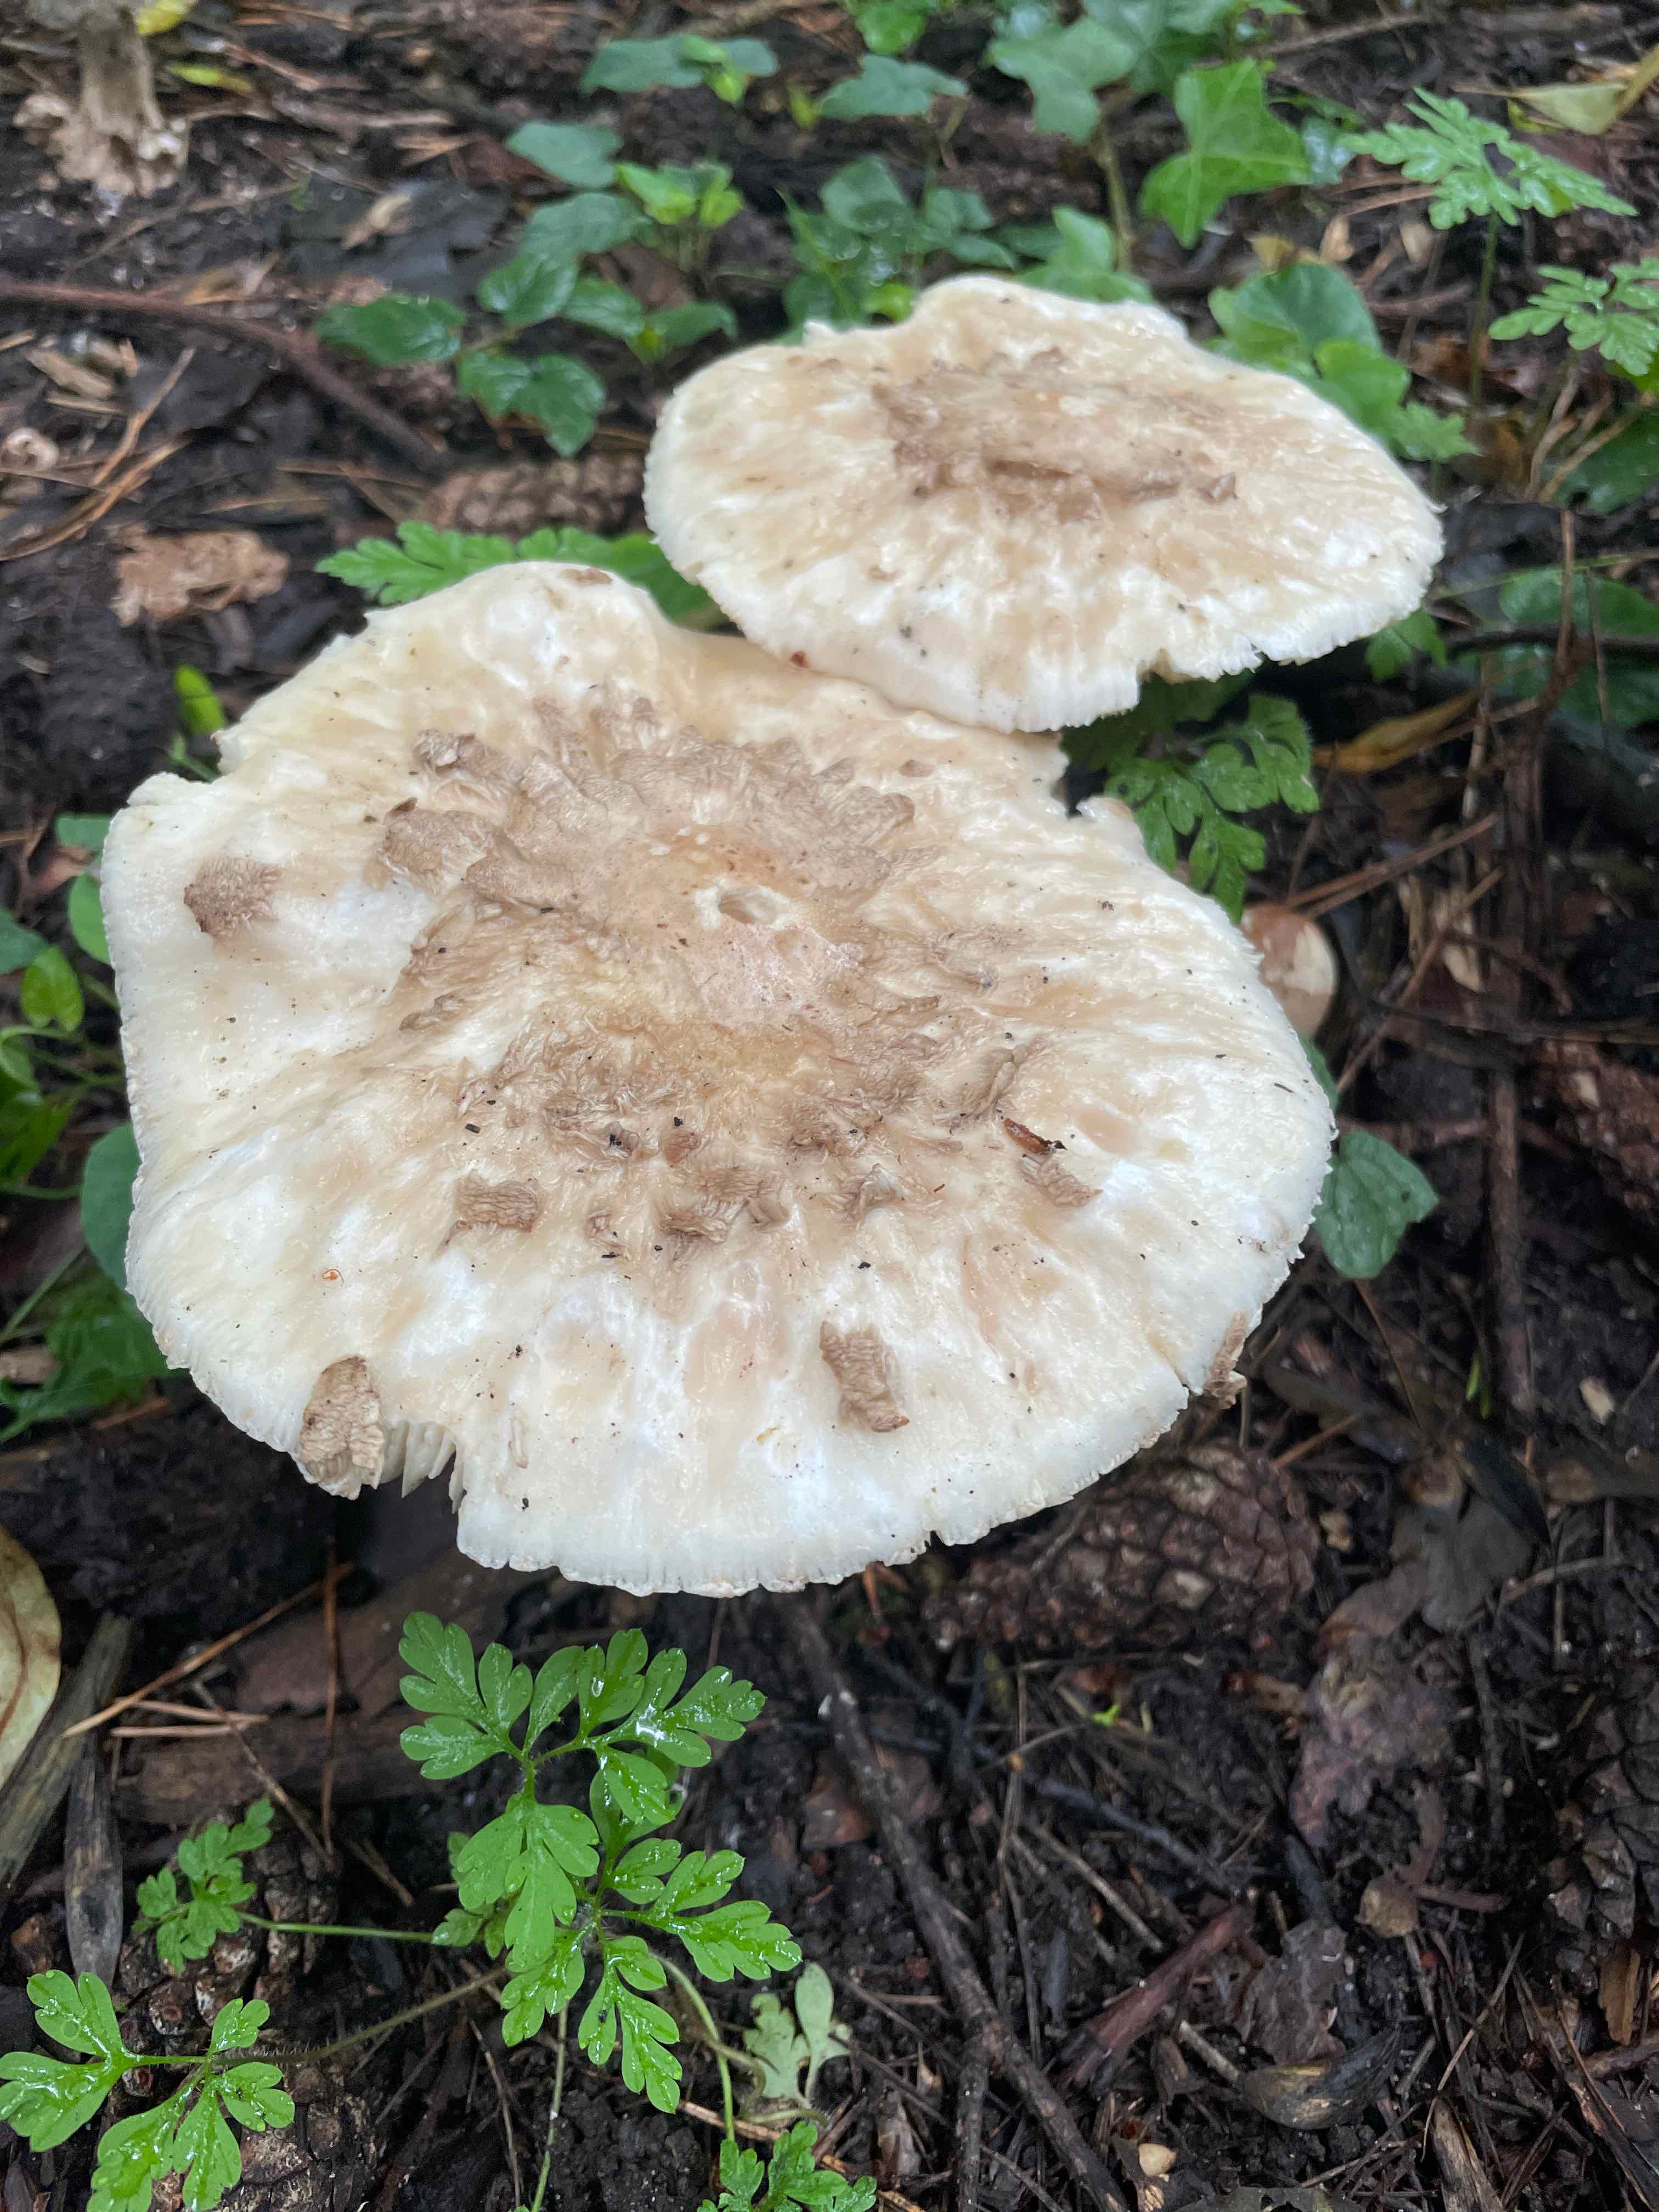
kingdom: Fungi
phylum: Basidiomycota
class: Agaricomycetes
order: Agaricales
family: Agaricaceae
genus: Chlorophyllum
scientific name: Chlorophyllum
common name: rabarberhat
